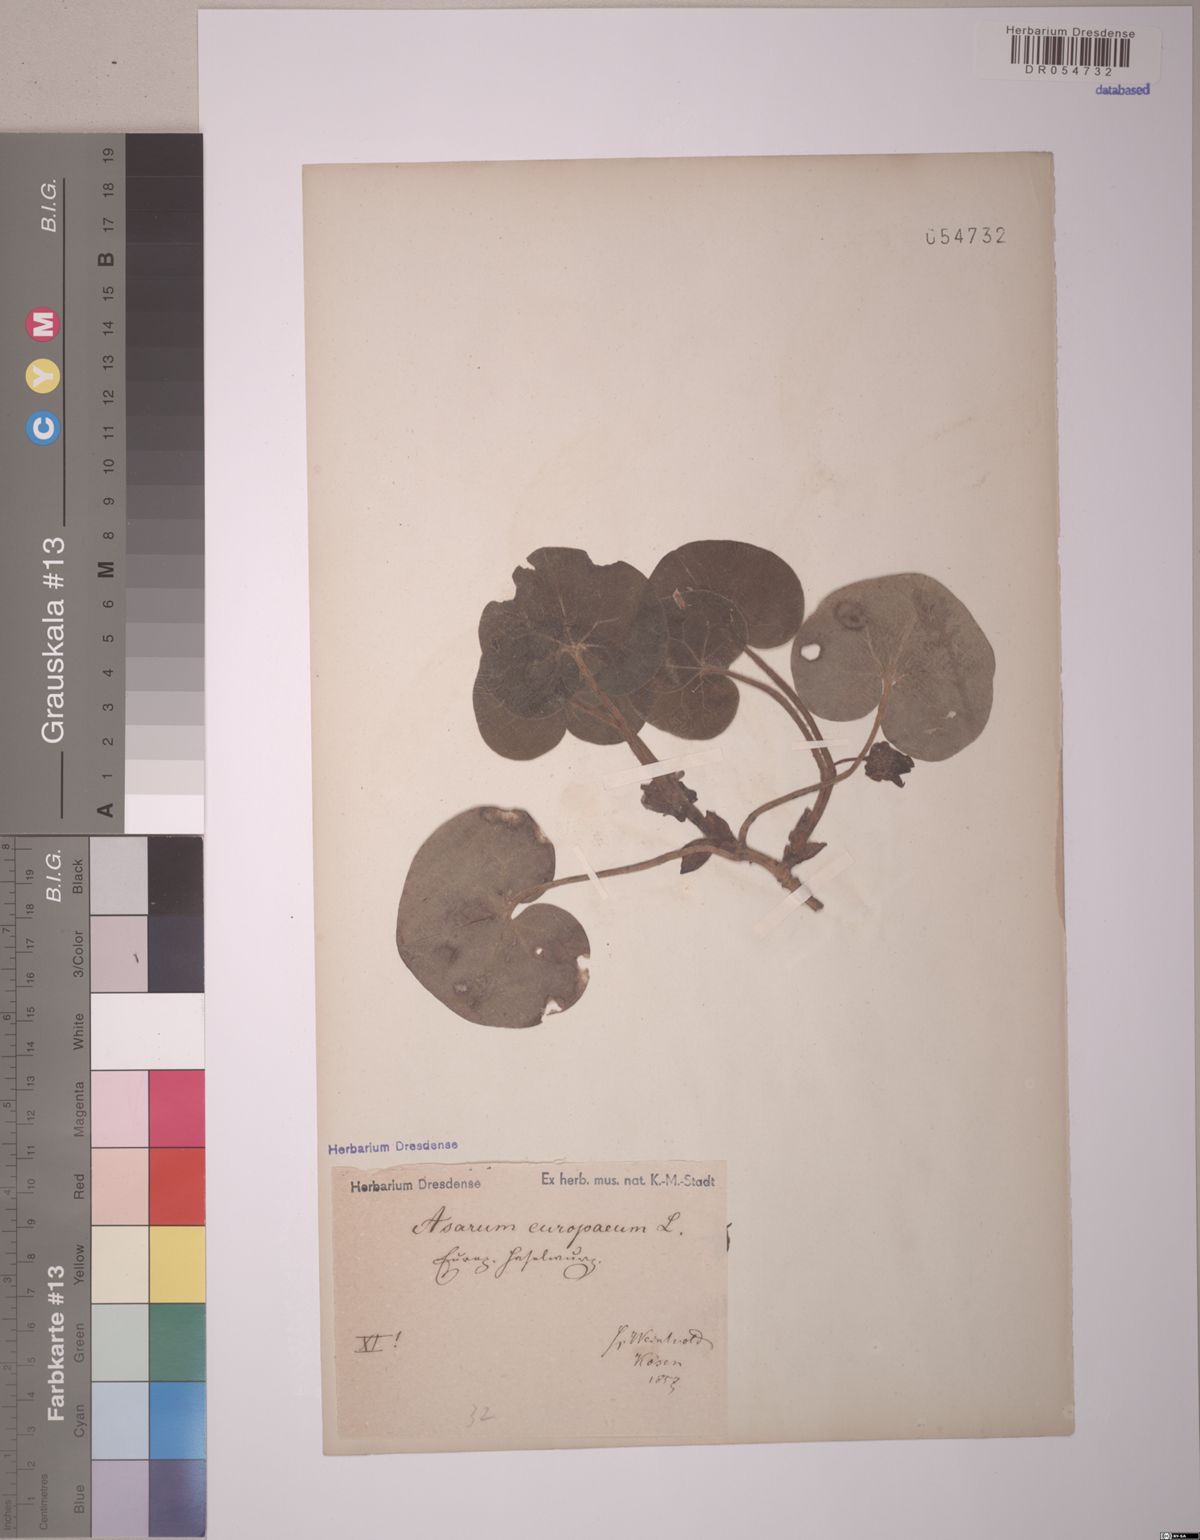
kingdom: Plantae
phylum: Tracheophyta
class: Magnoliopsida
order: Piperales
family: Aristolochiaceae
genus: Asarum
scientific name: Asarum europaeum
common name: Asarabacca
